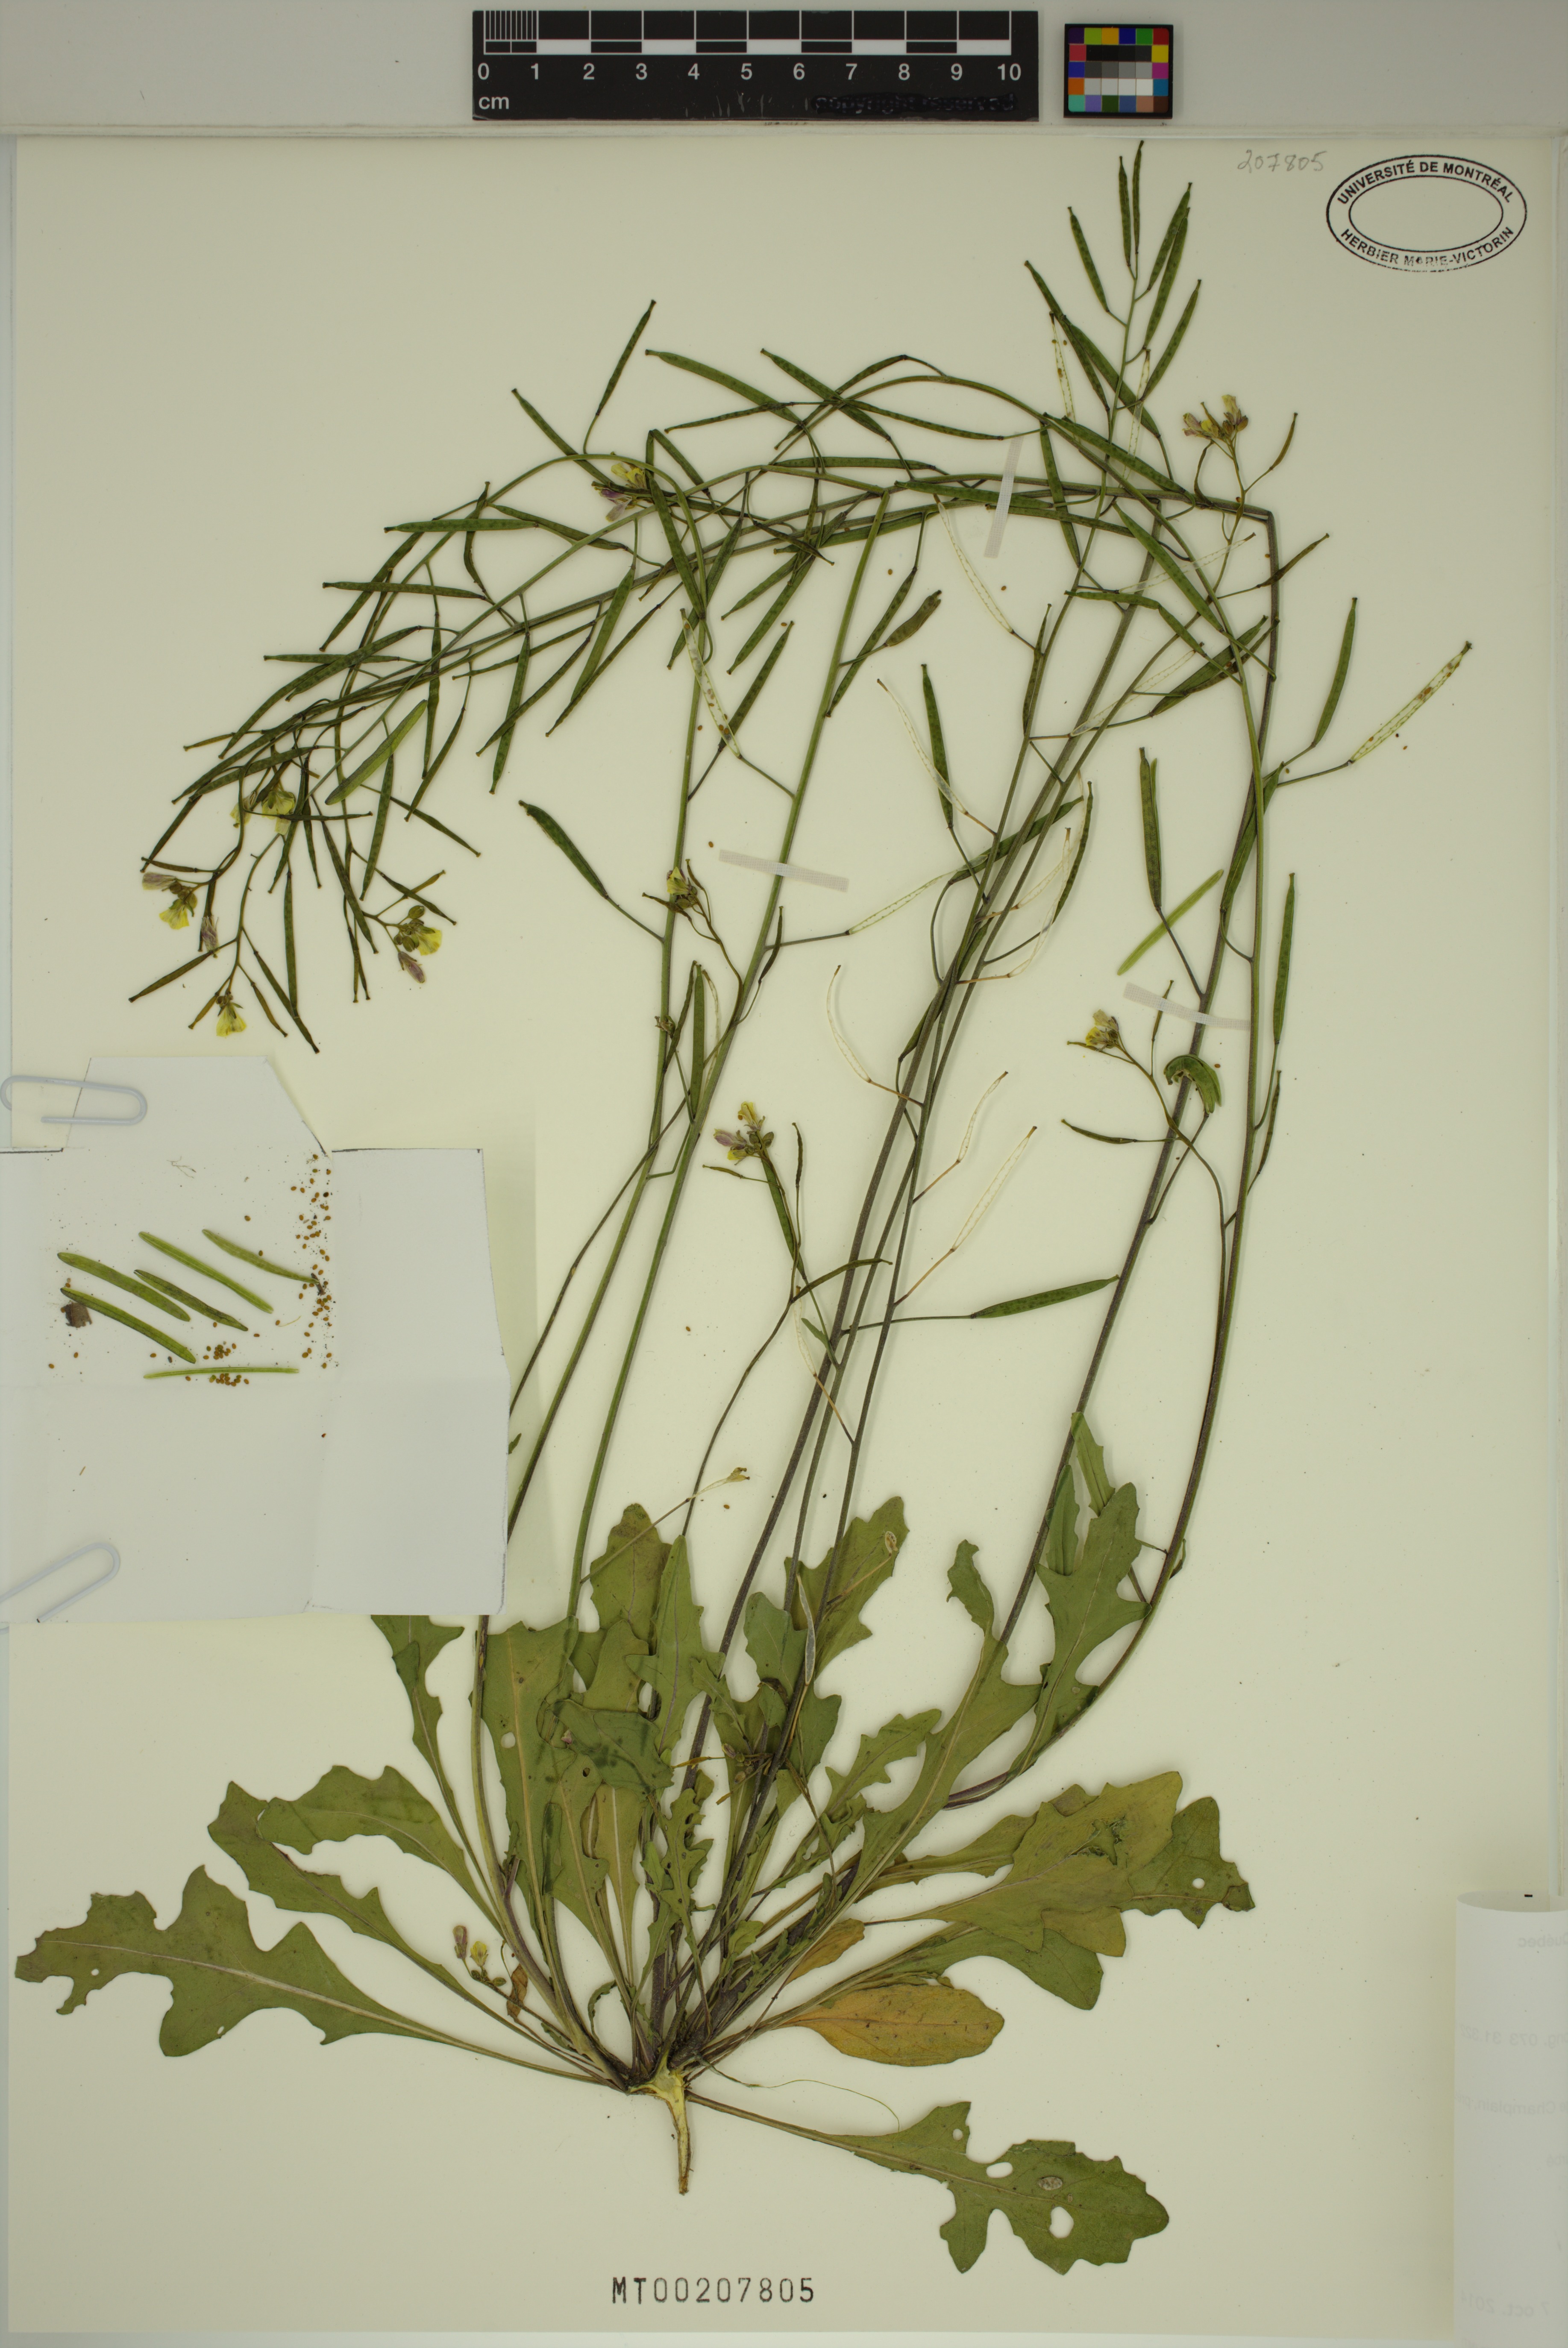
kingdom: Plantae
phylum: Tracheophyta
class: Magnoliopsida
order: Brassicales
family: Brassicaceae
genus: Diplotaxis
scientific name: Diplotaxis muralis
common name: Annual wall-rocket
